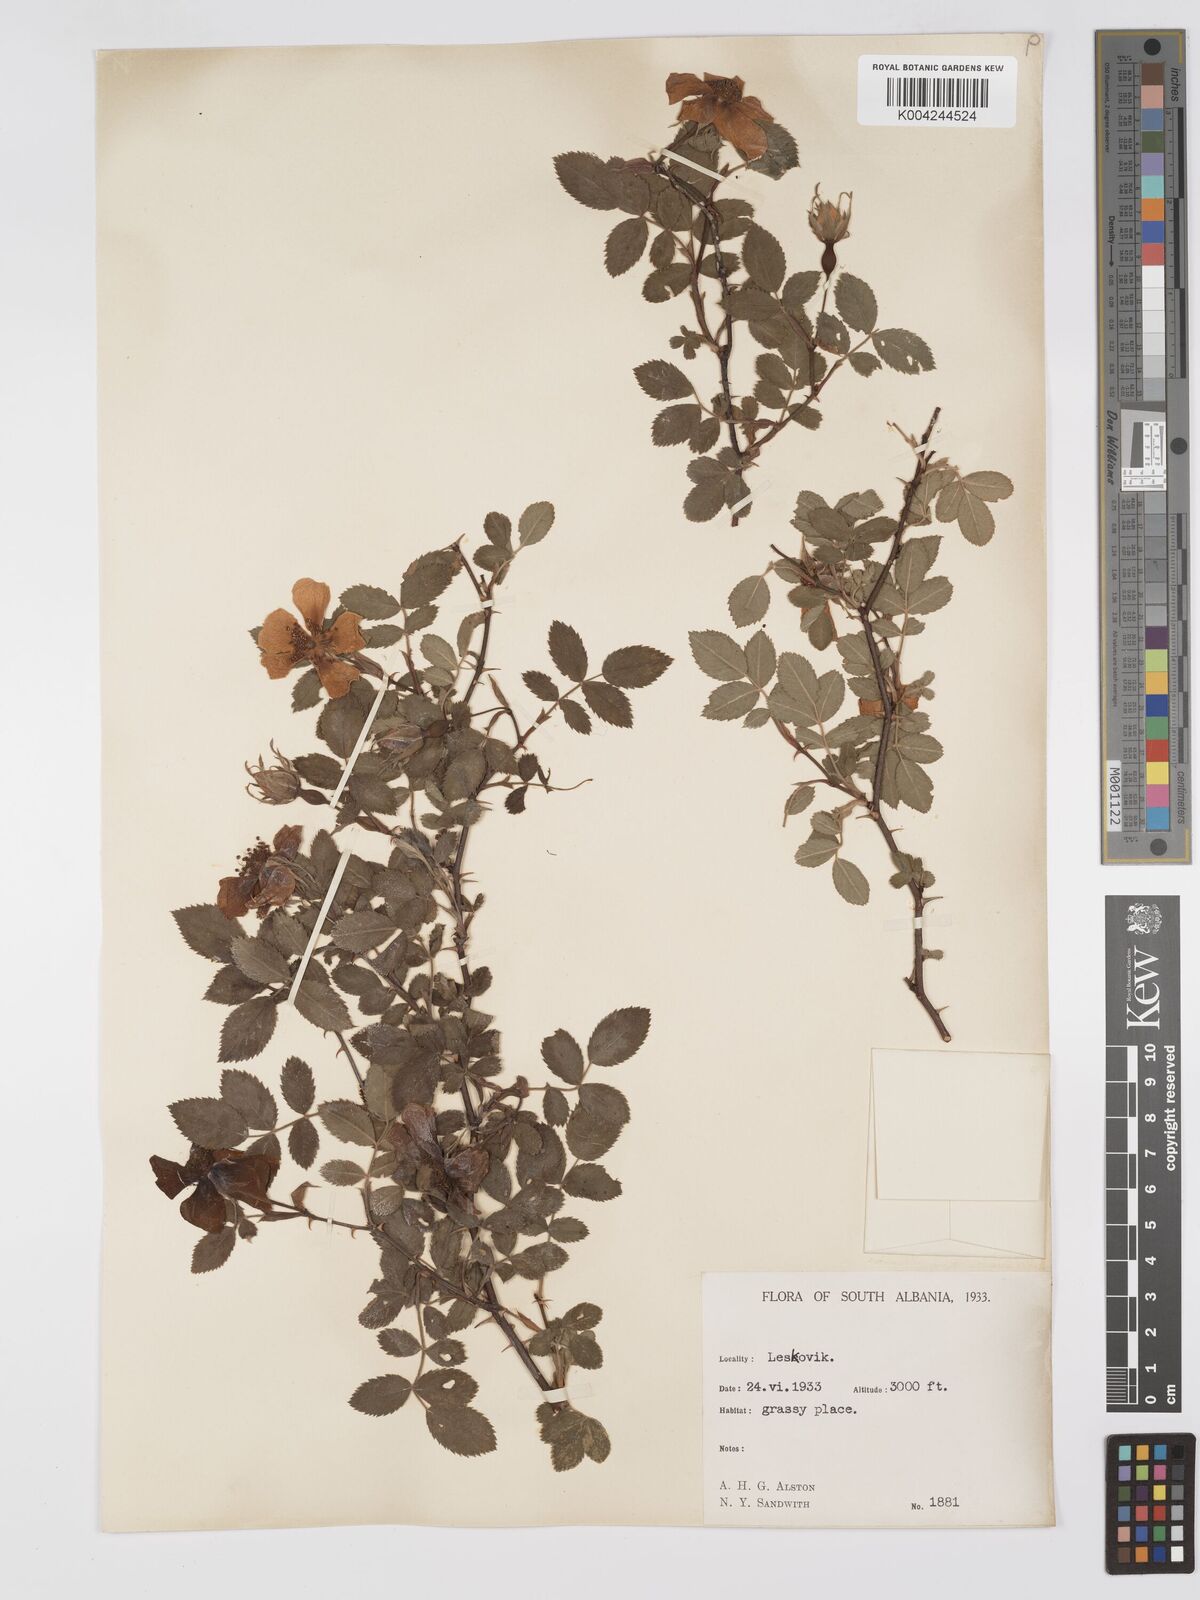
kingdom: Plantae
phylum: Tracheophyta
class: Magnoliopsida
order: Rosales
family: Rosaceae
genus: Rosa
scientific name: Rosa
